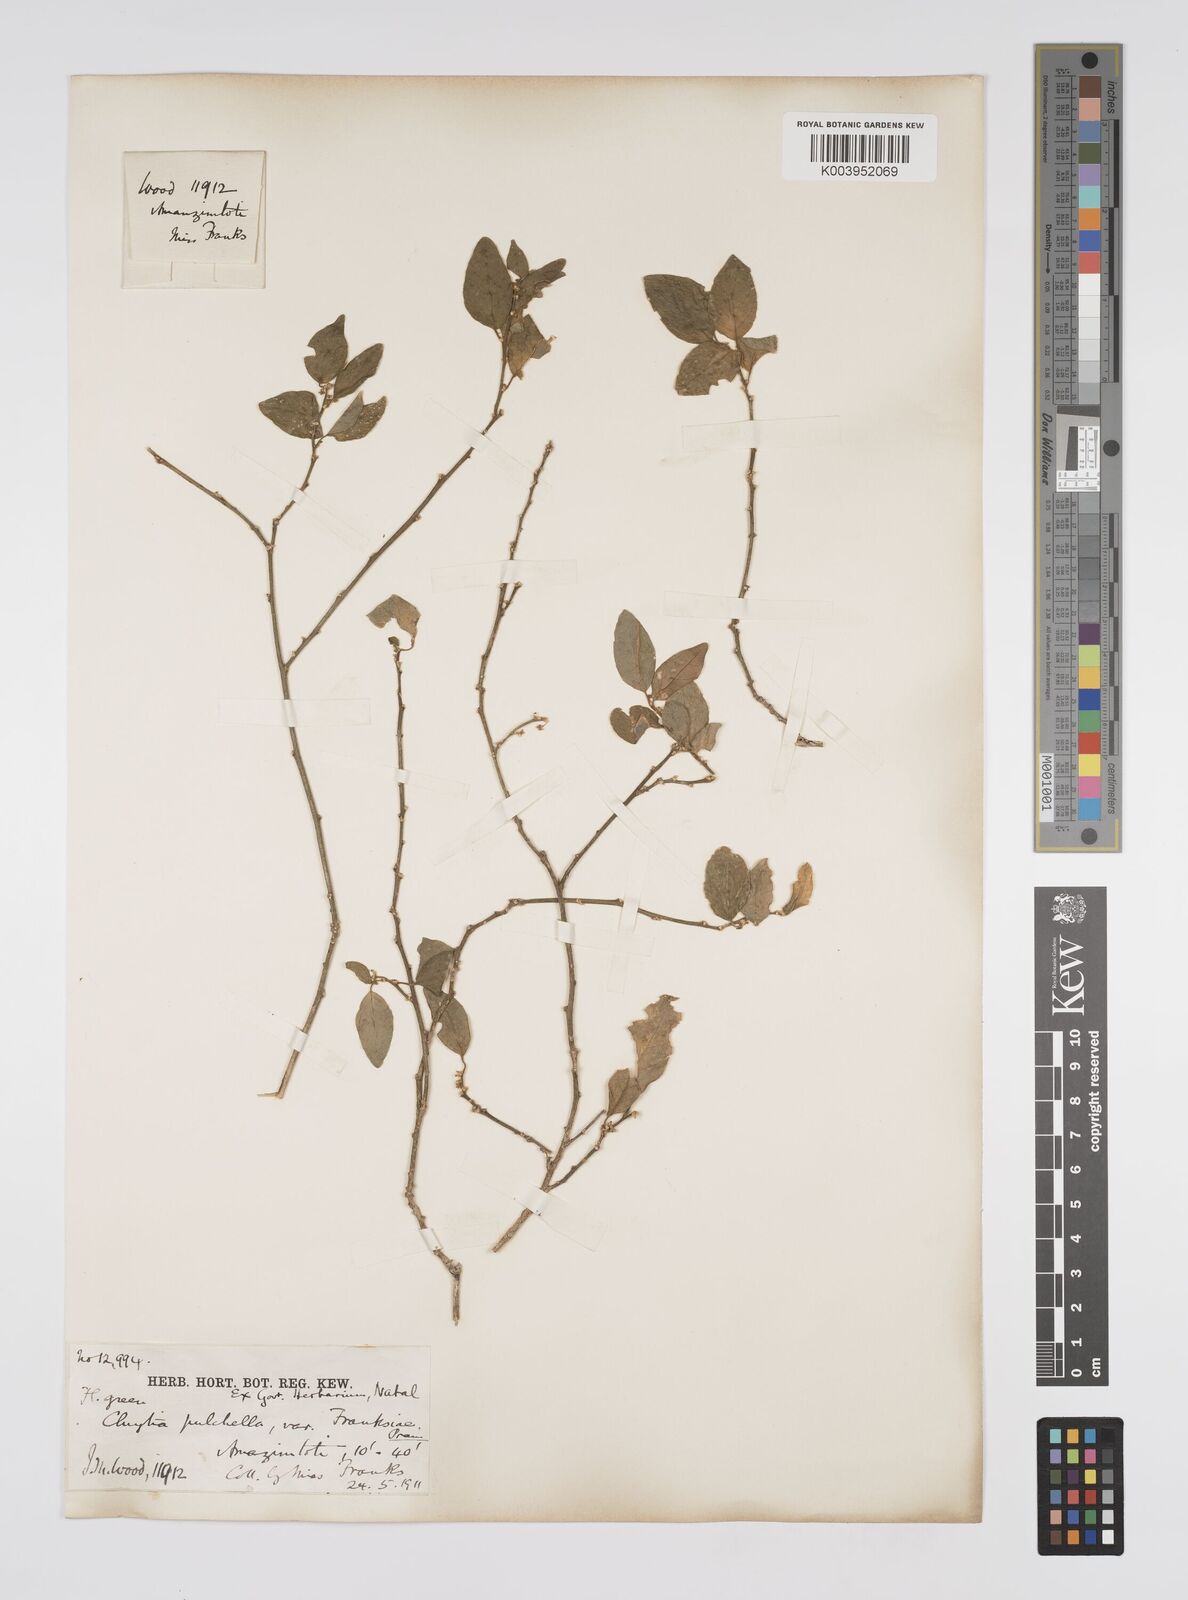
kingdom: Plantae
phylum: Tracheophyta
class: Magnoliopsida
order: Malpighiales
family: Peraceae
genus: Clutia
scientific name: Clutia pulchella
